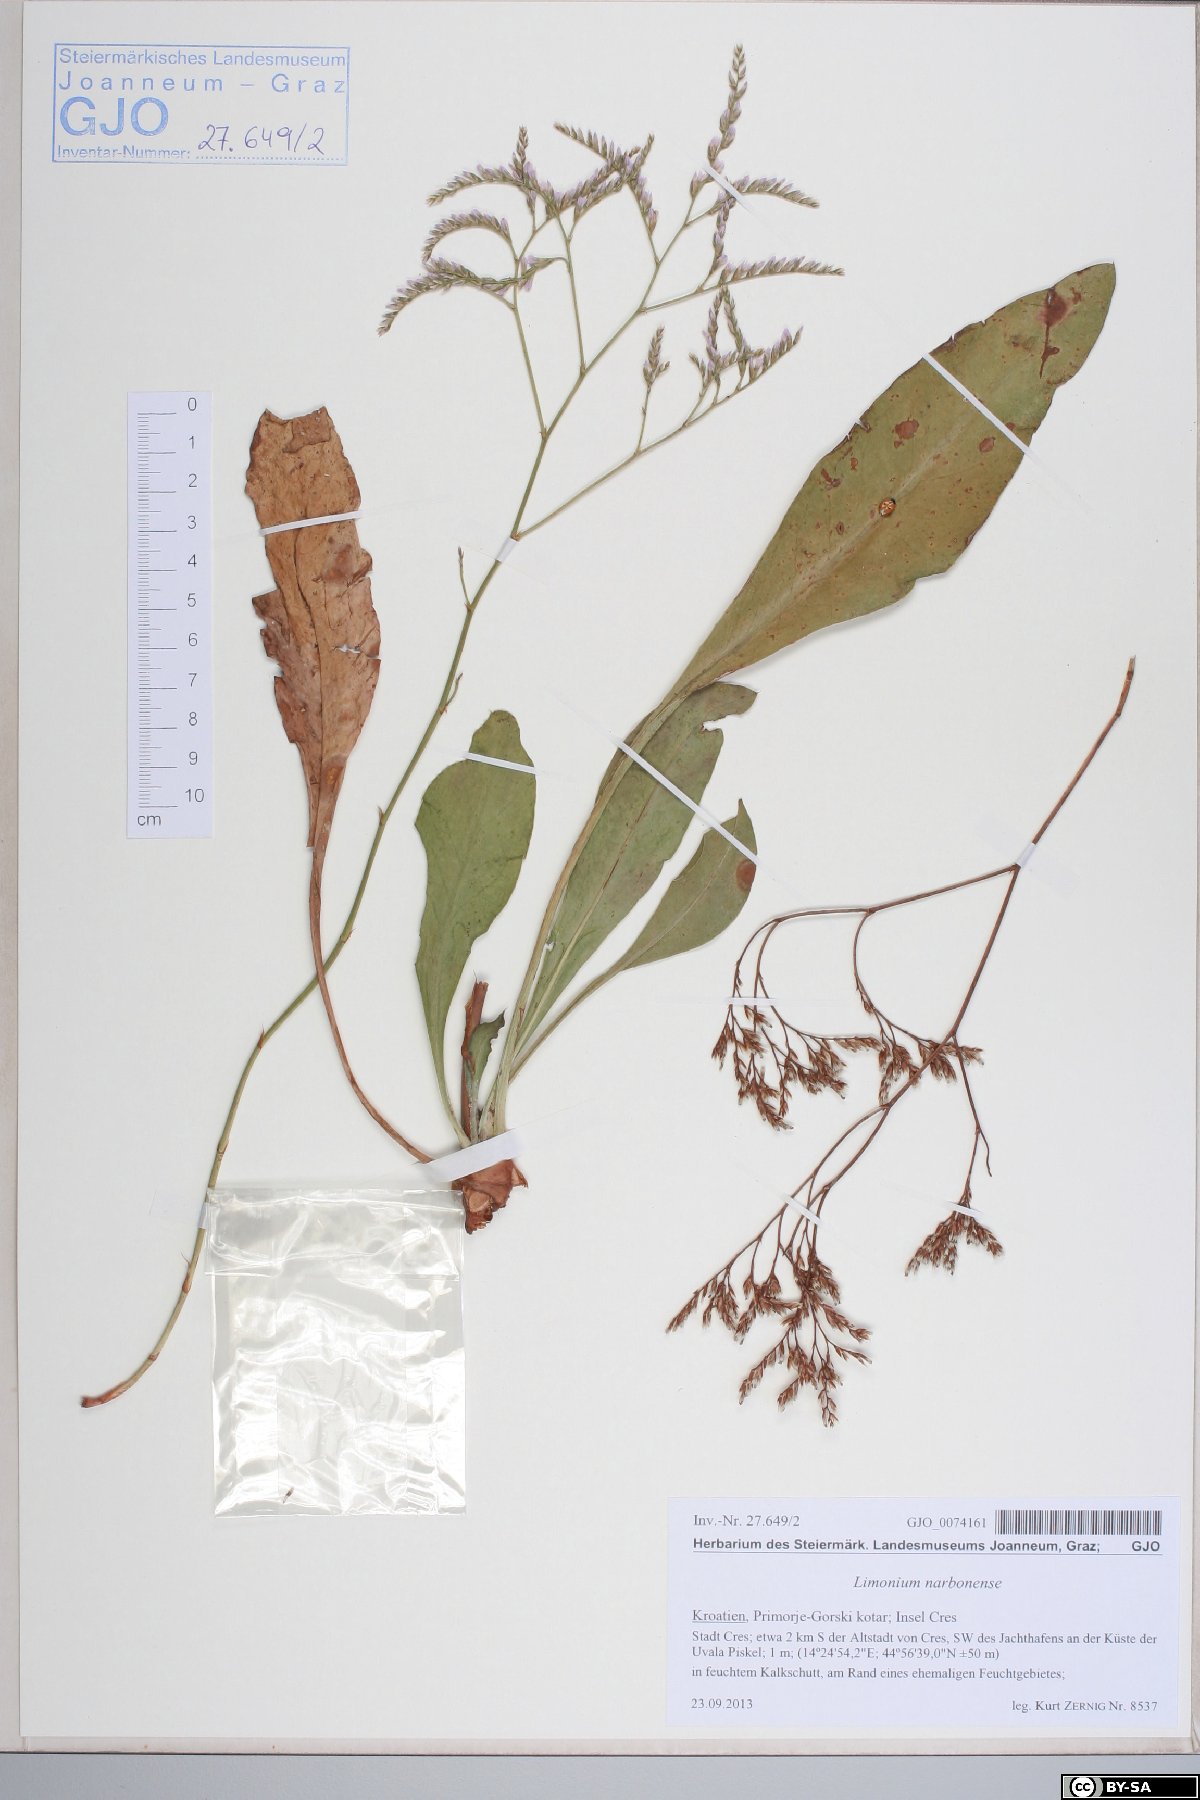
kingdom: Plantae
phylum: Tracheophyta
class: Magnoliopsida
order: Caryophyllales
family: Plumbaginaceae
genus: Limonium
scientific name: Limonium narbonense
